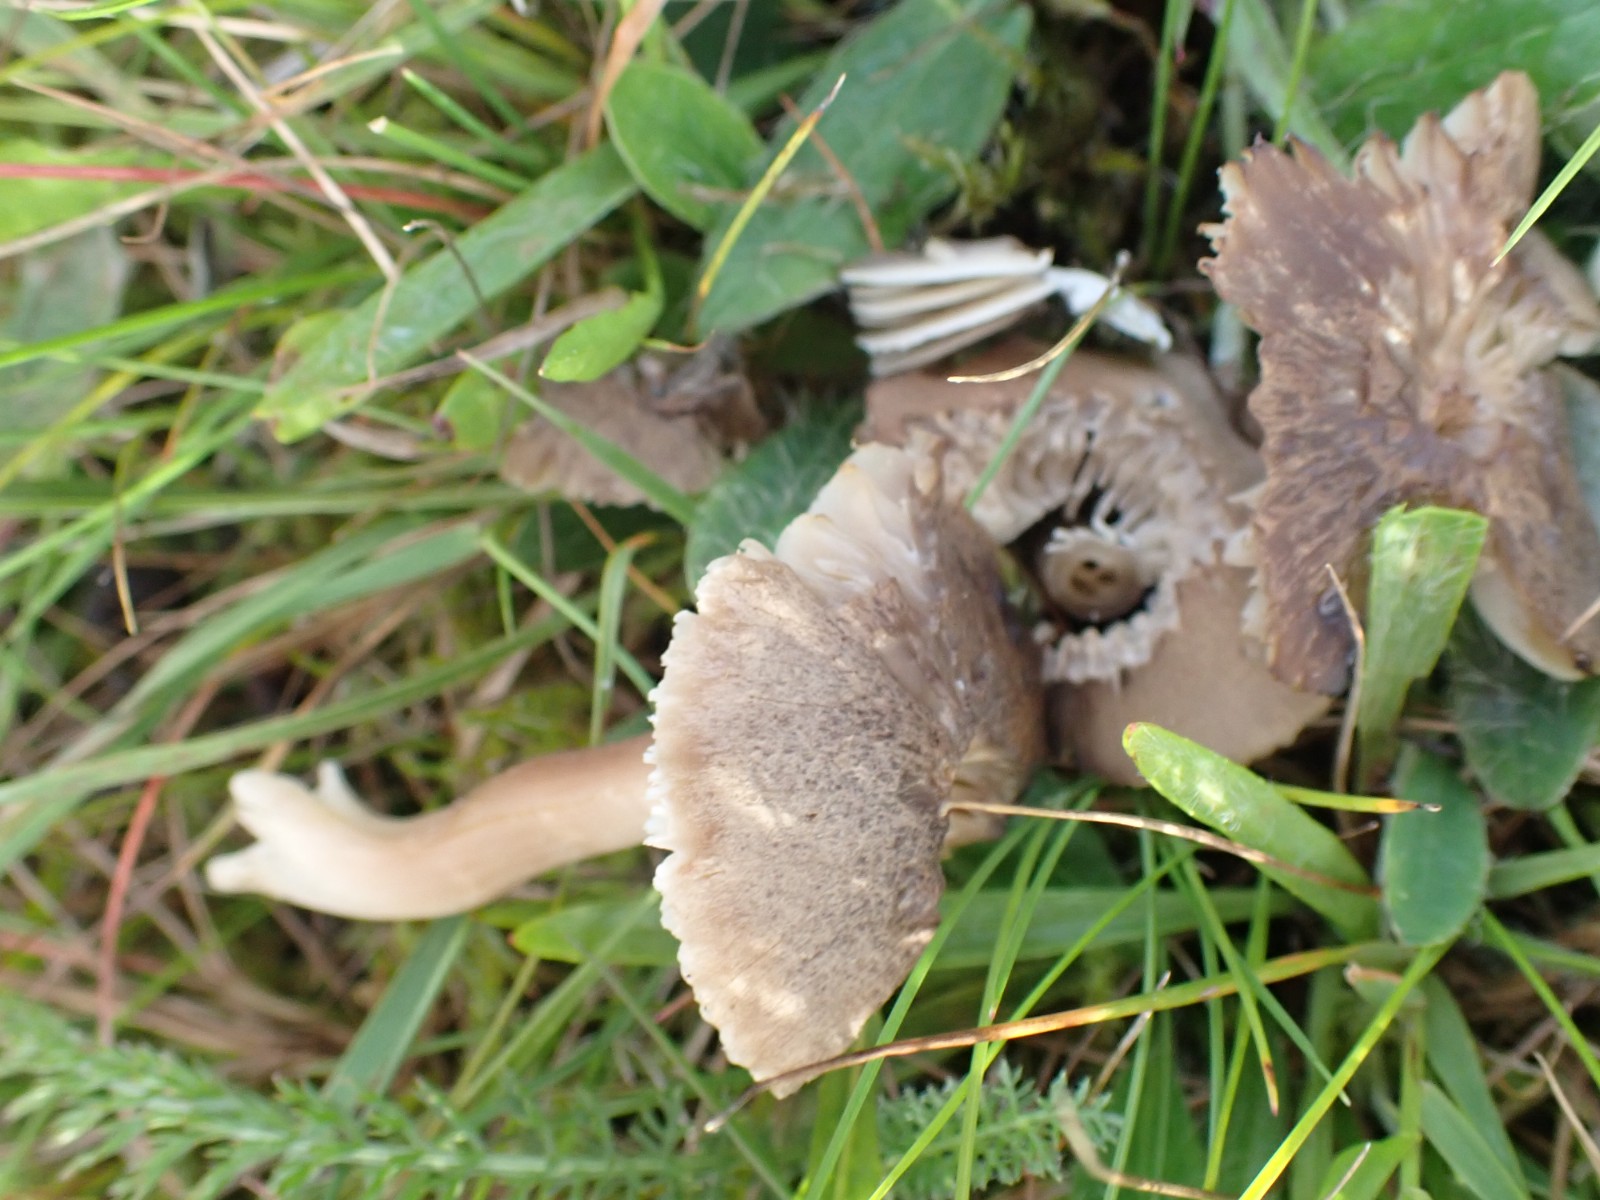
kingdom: Fungi
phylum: Basidiomycota
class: Agaricomycetes
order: Agaricales
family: Hygrophoraceae
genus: Neohygrocybe
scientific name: Neohygrocybe nitrata
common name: stinkende vokshat
